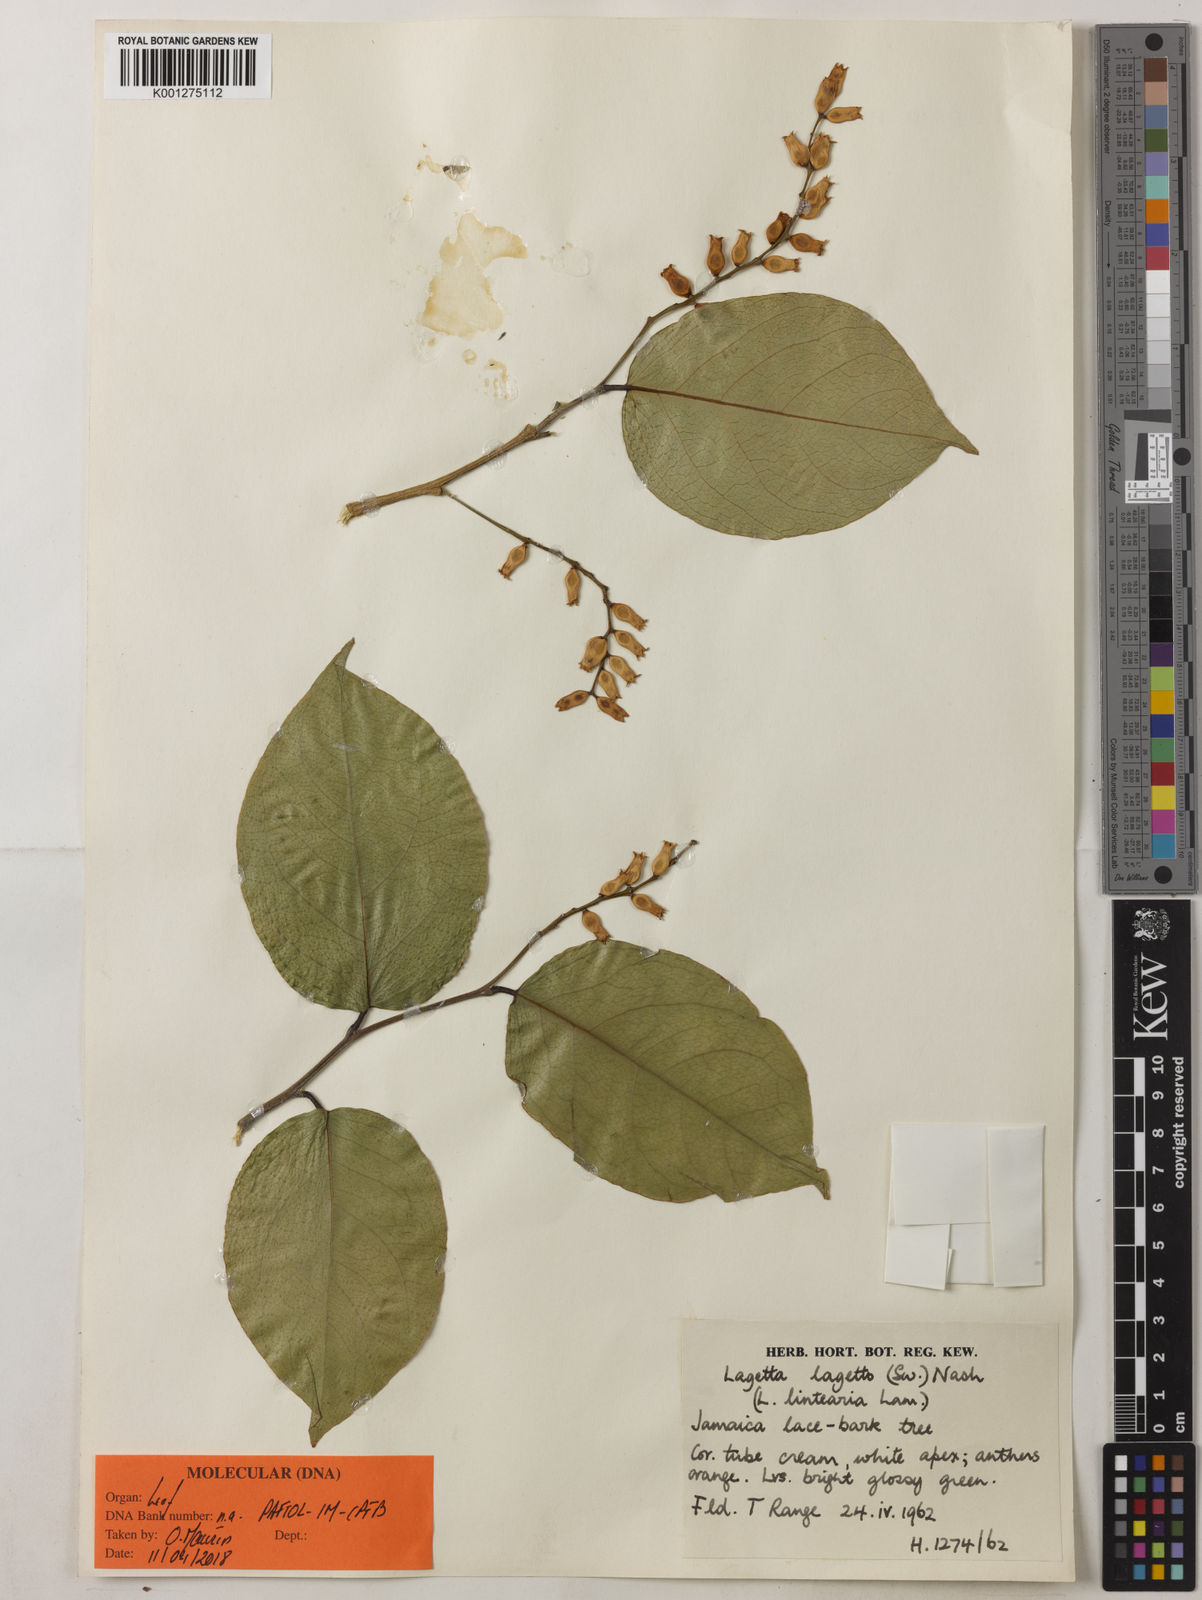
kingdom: Plantae
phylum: Tracheophyta
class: Magnoliopsida
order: Malvales
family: Thymelaeaceae
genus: Lagetta
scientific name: Lagetta lagetto
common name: Lacebark
